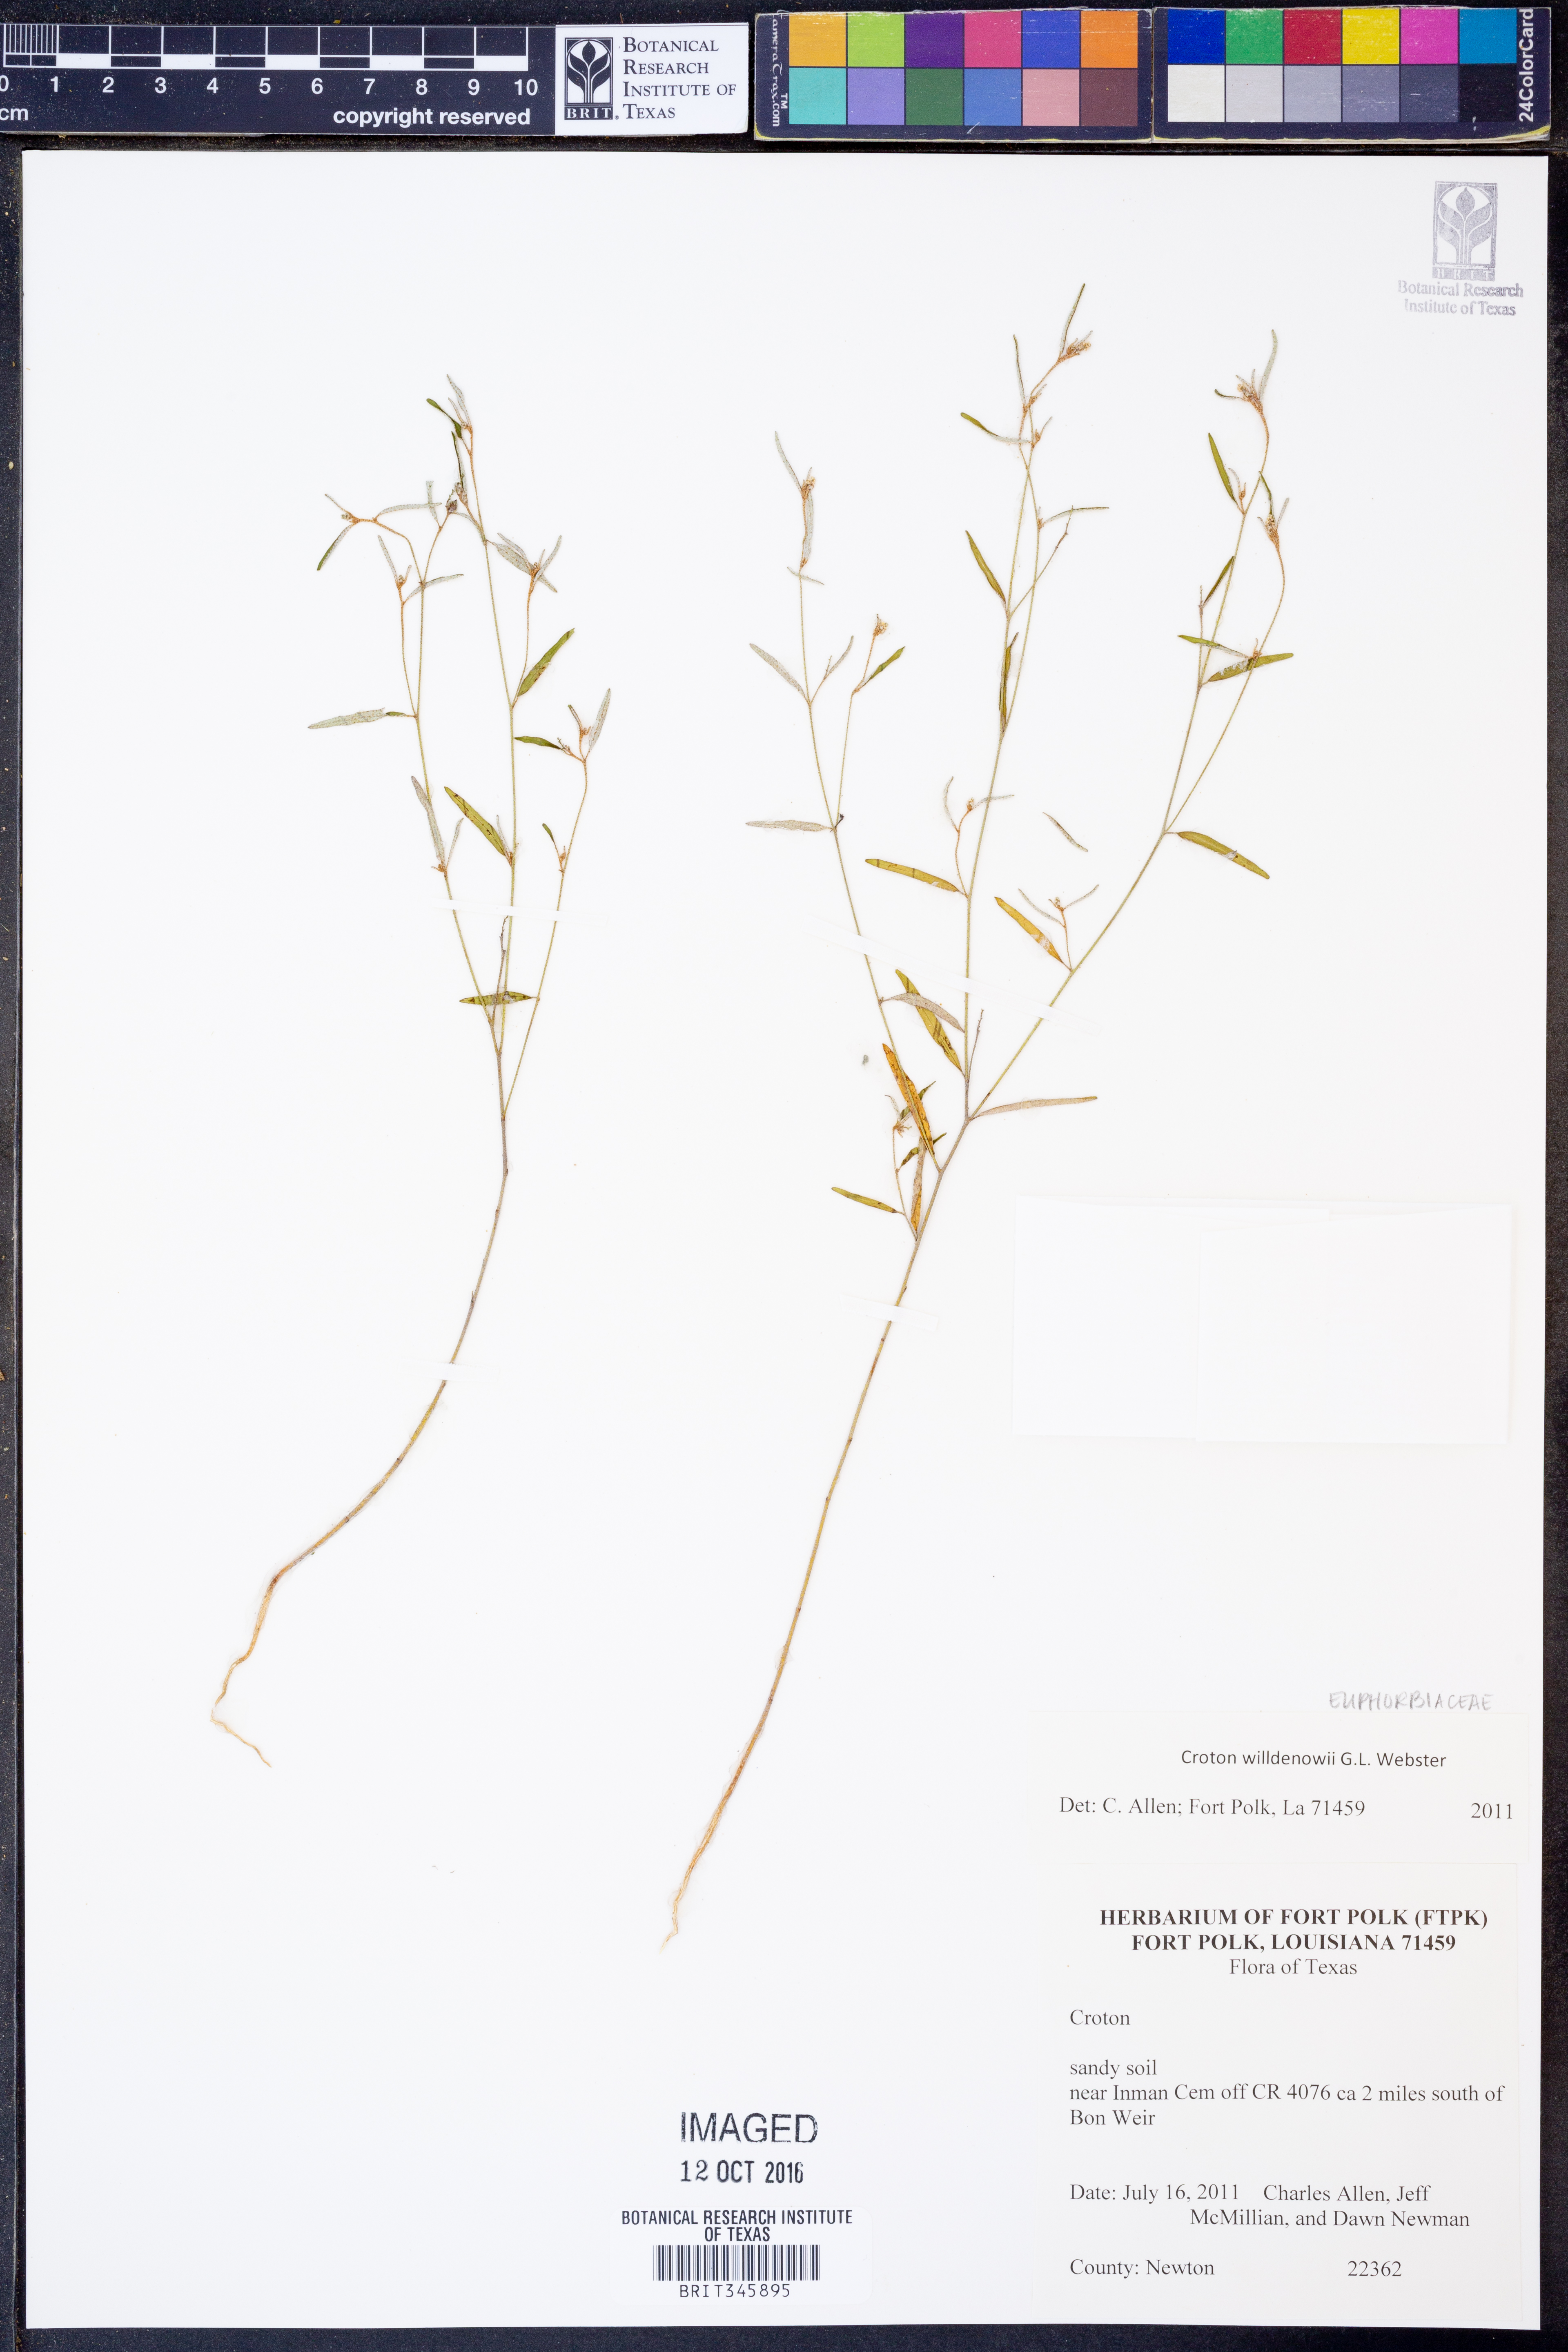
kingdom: Plantae
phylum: Tracheophyta
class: Magnoliopsida
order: Malpighiales
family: Euphorbiaceae
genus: Croton
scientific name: Croton michauxii
